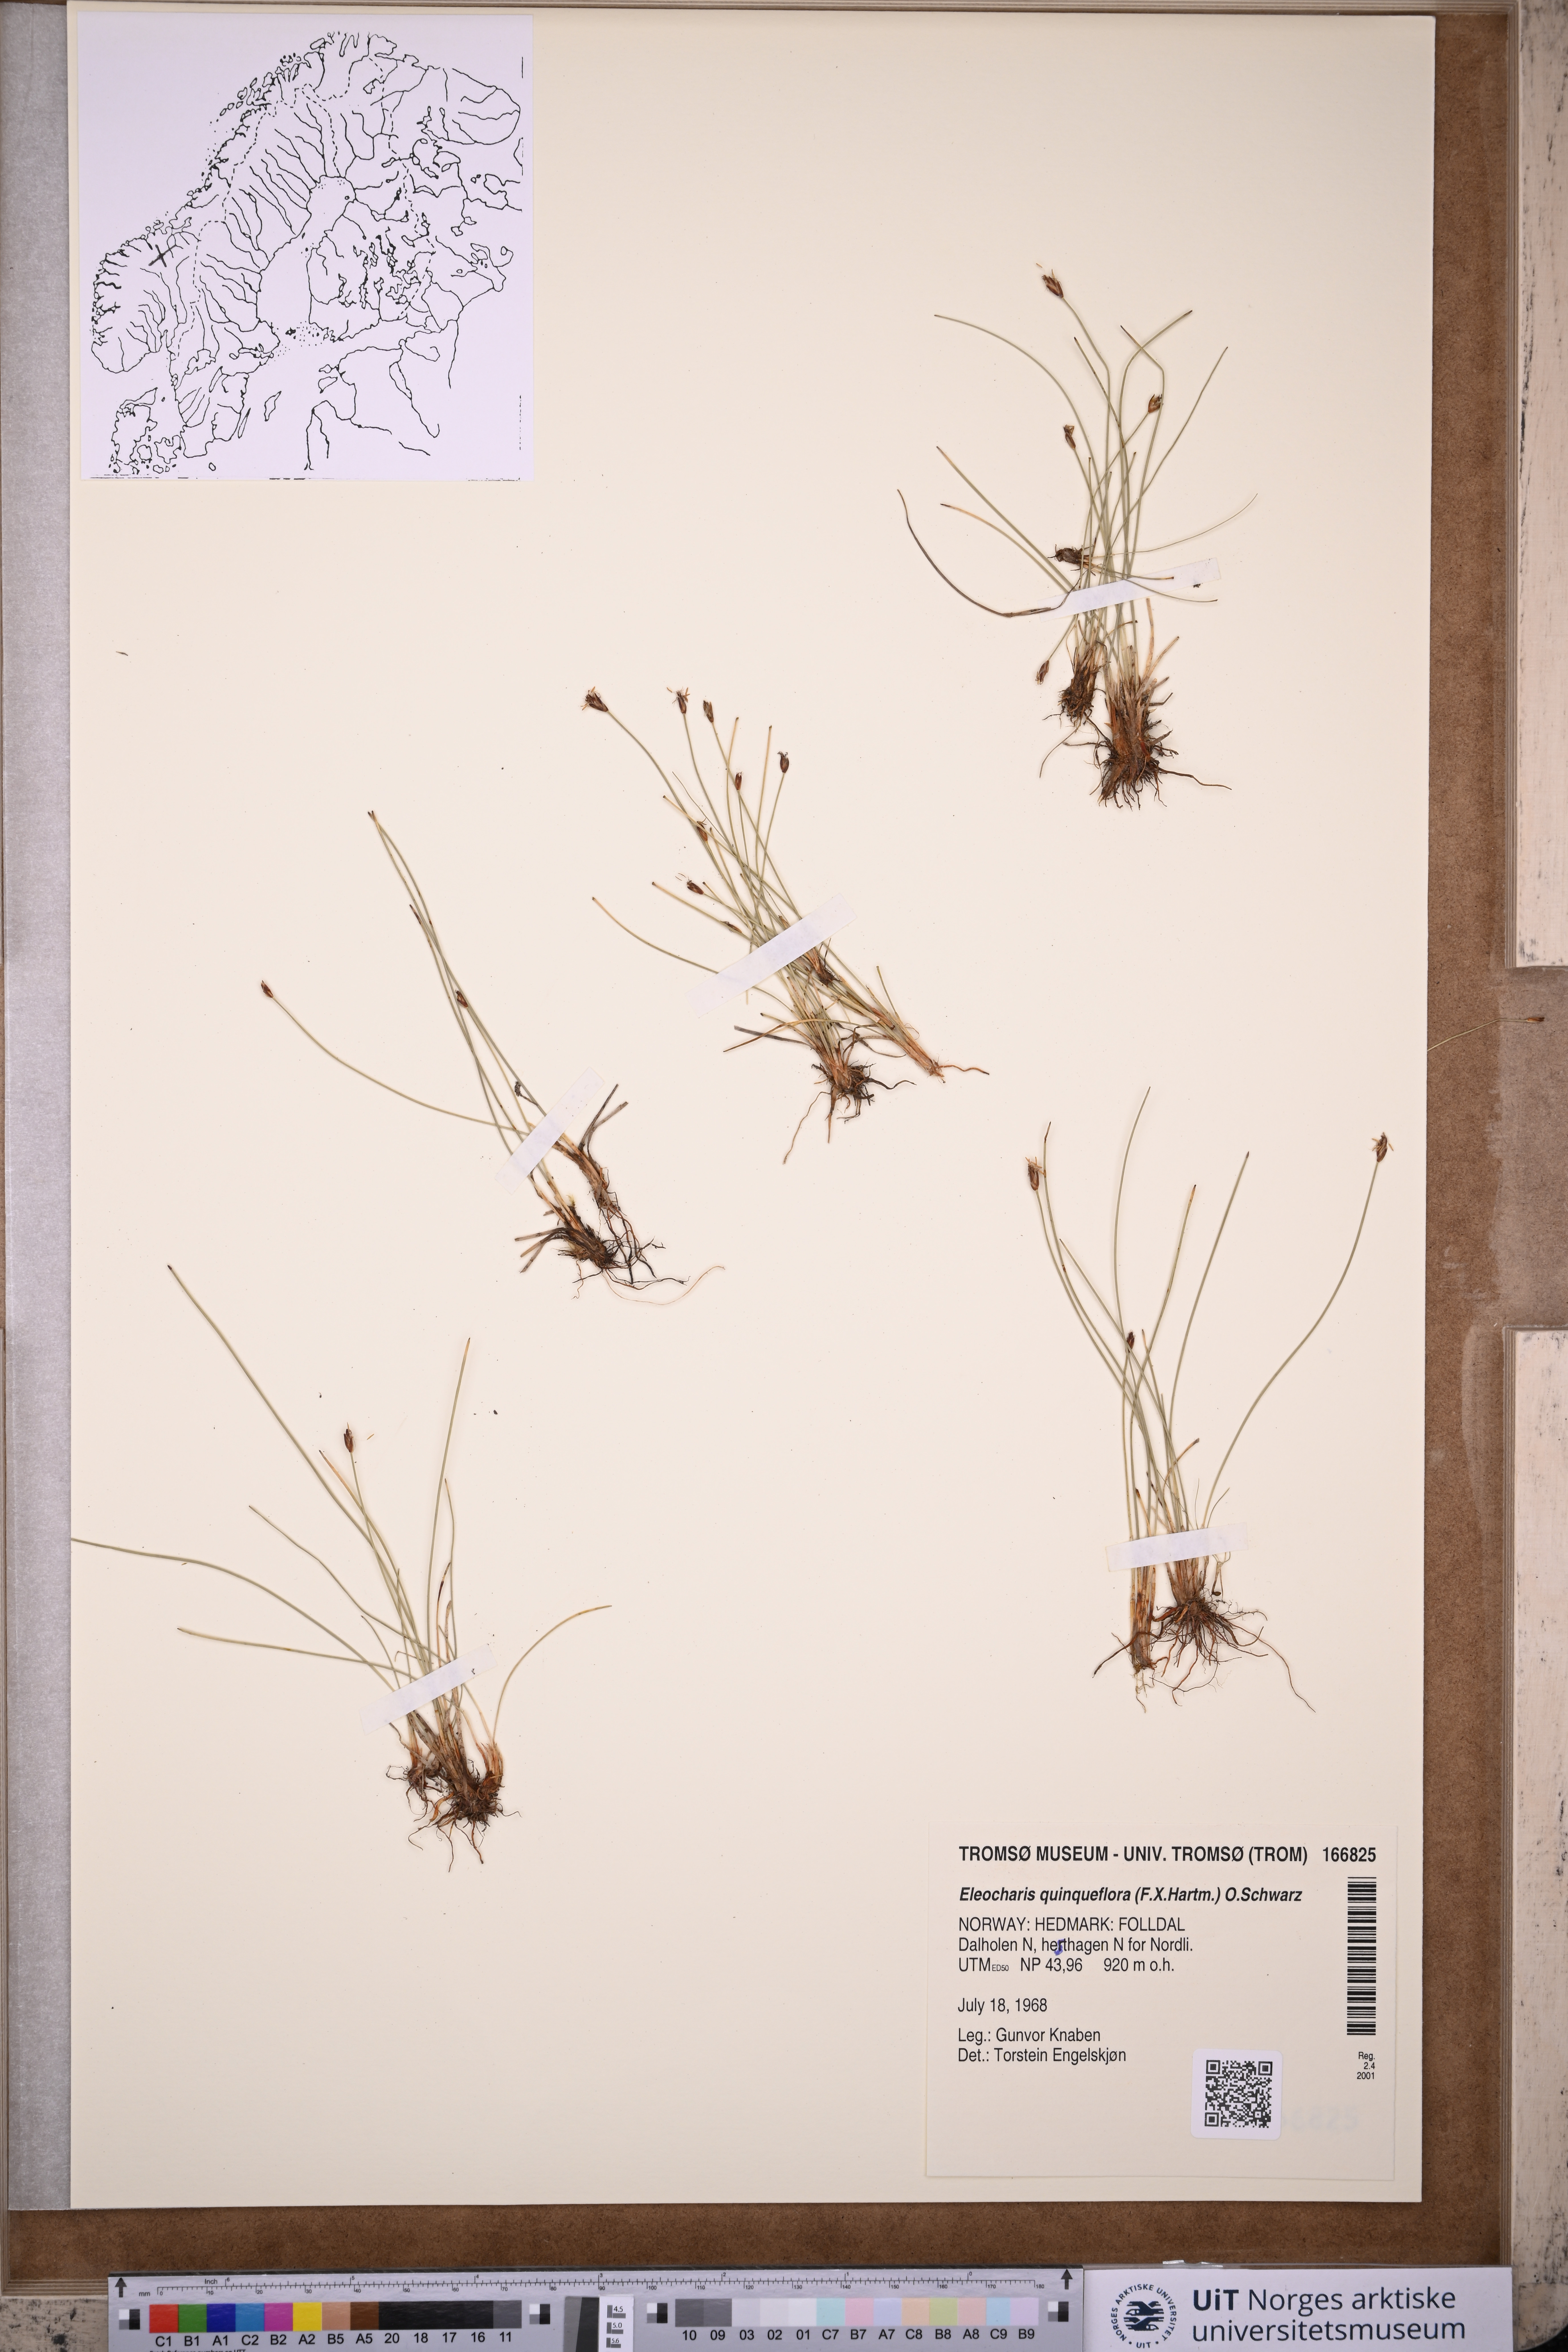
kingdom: Plantae
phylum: Tracheophyta
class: Liliopsida
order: Poales
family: Cyperaceae
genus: Eleocharis
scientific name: Eleocharis quinqueflora
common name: Few-flowered spike-rush
